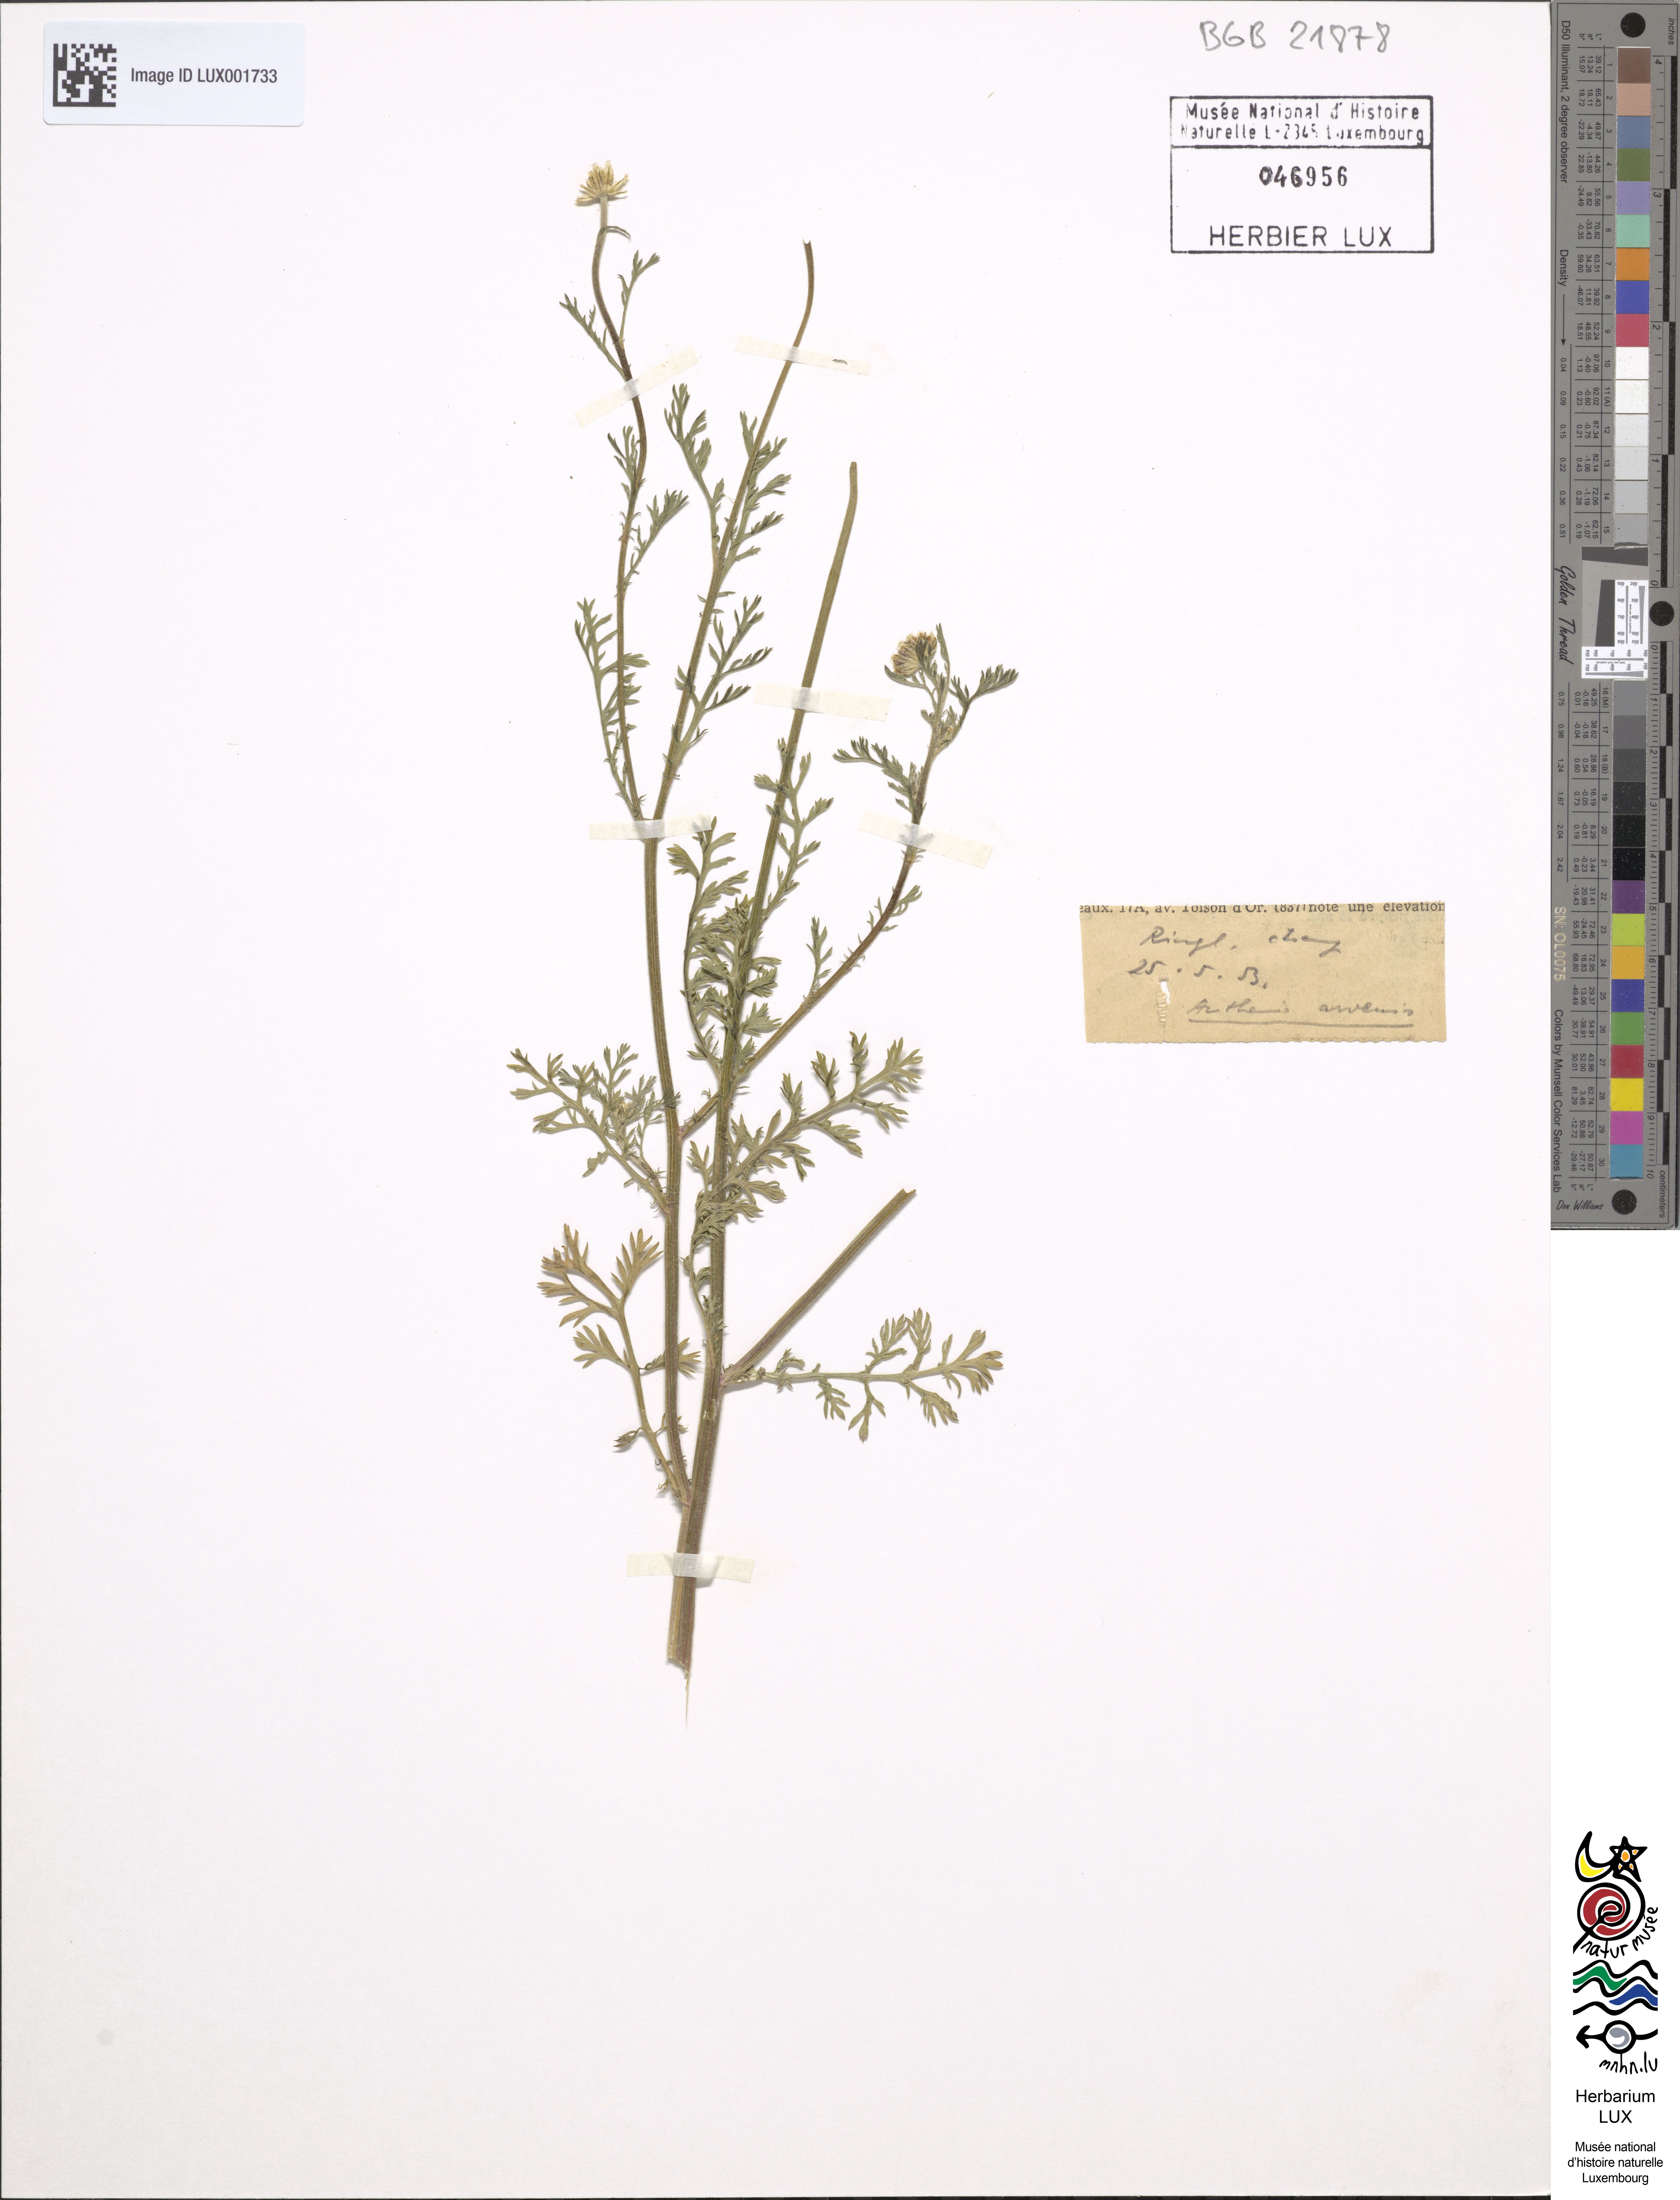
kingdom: Plantae
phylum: Tracheophyta
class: Magnoliopsida
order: Asterales
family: Asteraceae
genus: Anthemis
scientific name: Anthemis arvensis
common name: Corn chamomile
